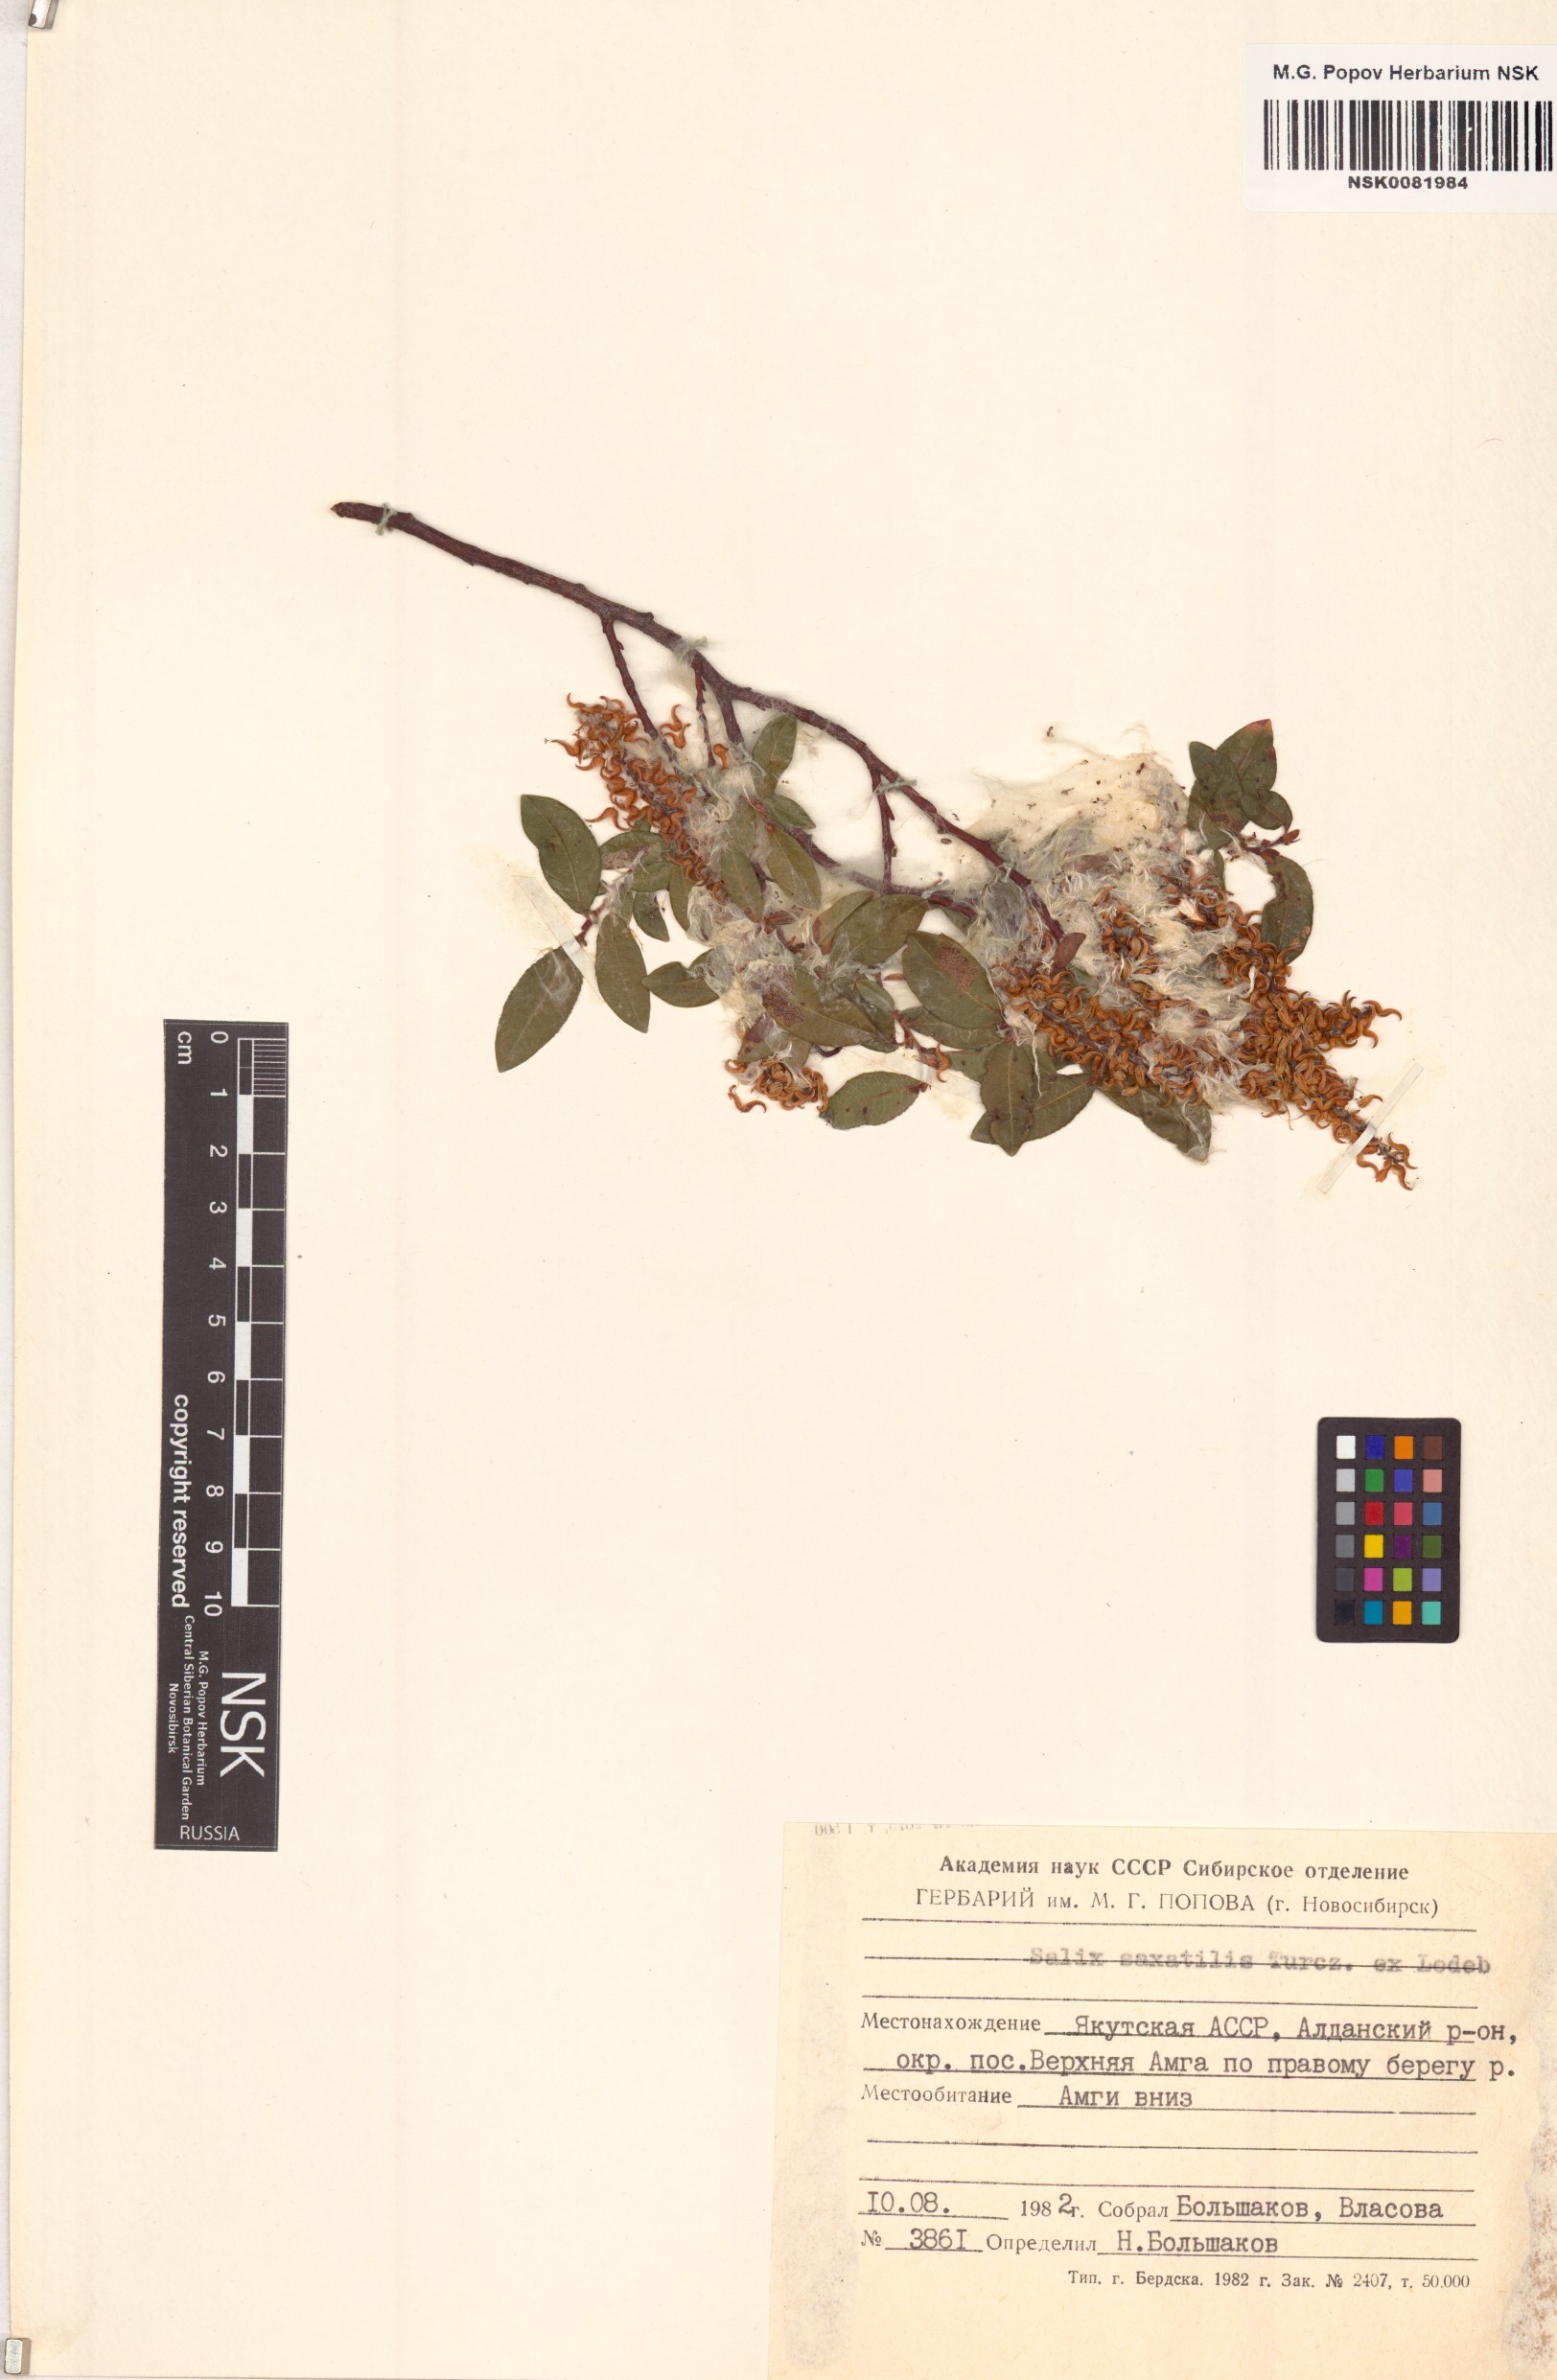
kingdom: Plantae
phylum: Tracheophyta
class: Magnoliopsida
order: Malpighiales
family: Salicaceae
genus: Salix
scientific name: Salix saxatilis
